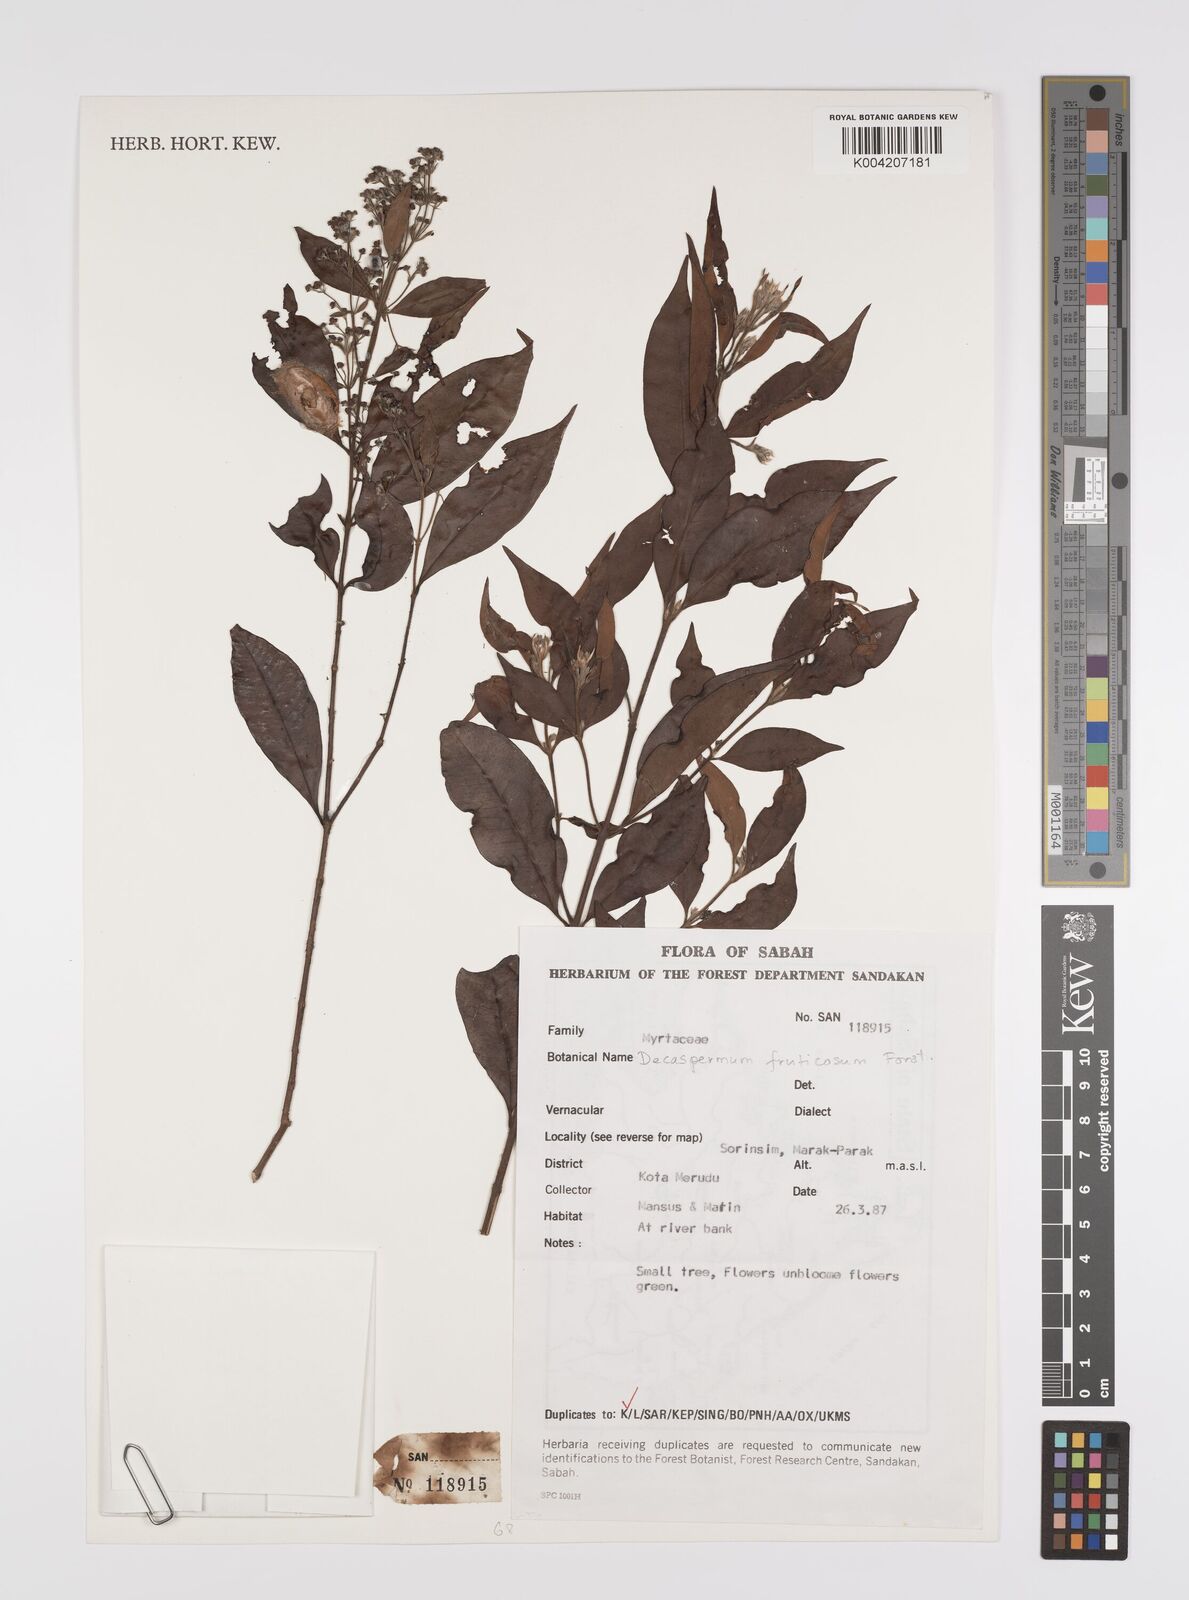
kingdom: Plantae
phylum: Tracheophyta
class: Magnoliopsida
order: Myrtales
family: Myrtaceae
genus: Decaspermum
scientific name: Decaspermum parviflorum
